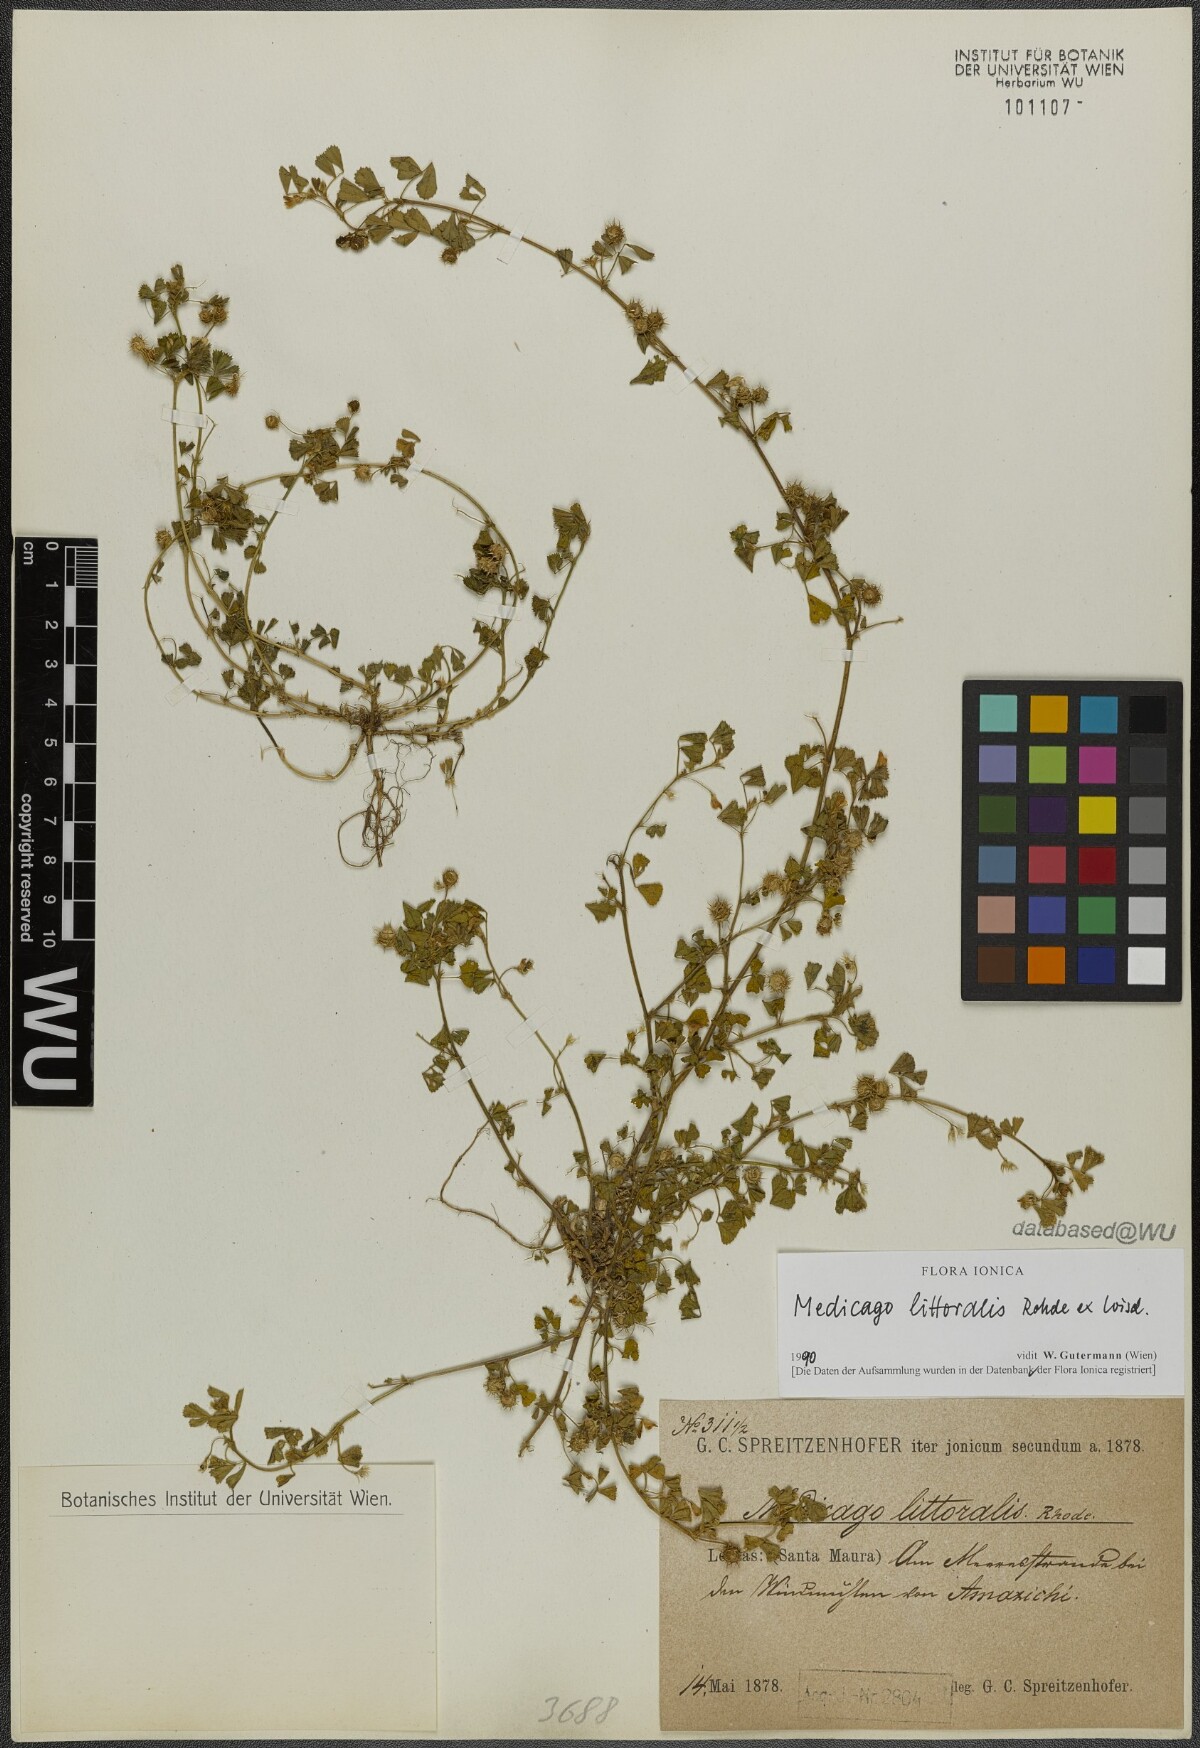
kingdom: Plantae
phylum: Tracheophyta
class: Magnoliopsida
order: Fabales
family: Fabaceae
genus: Medicago
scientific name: Medicago littoralis
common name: Shore medick
